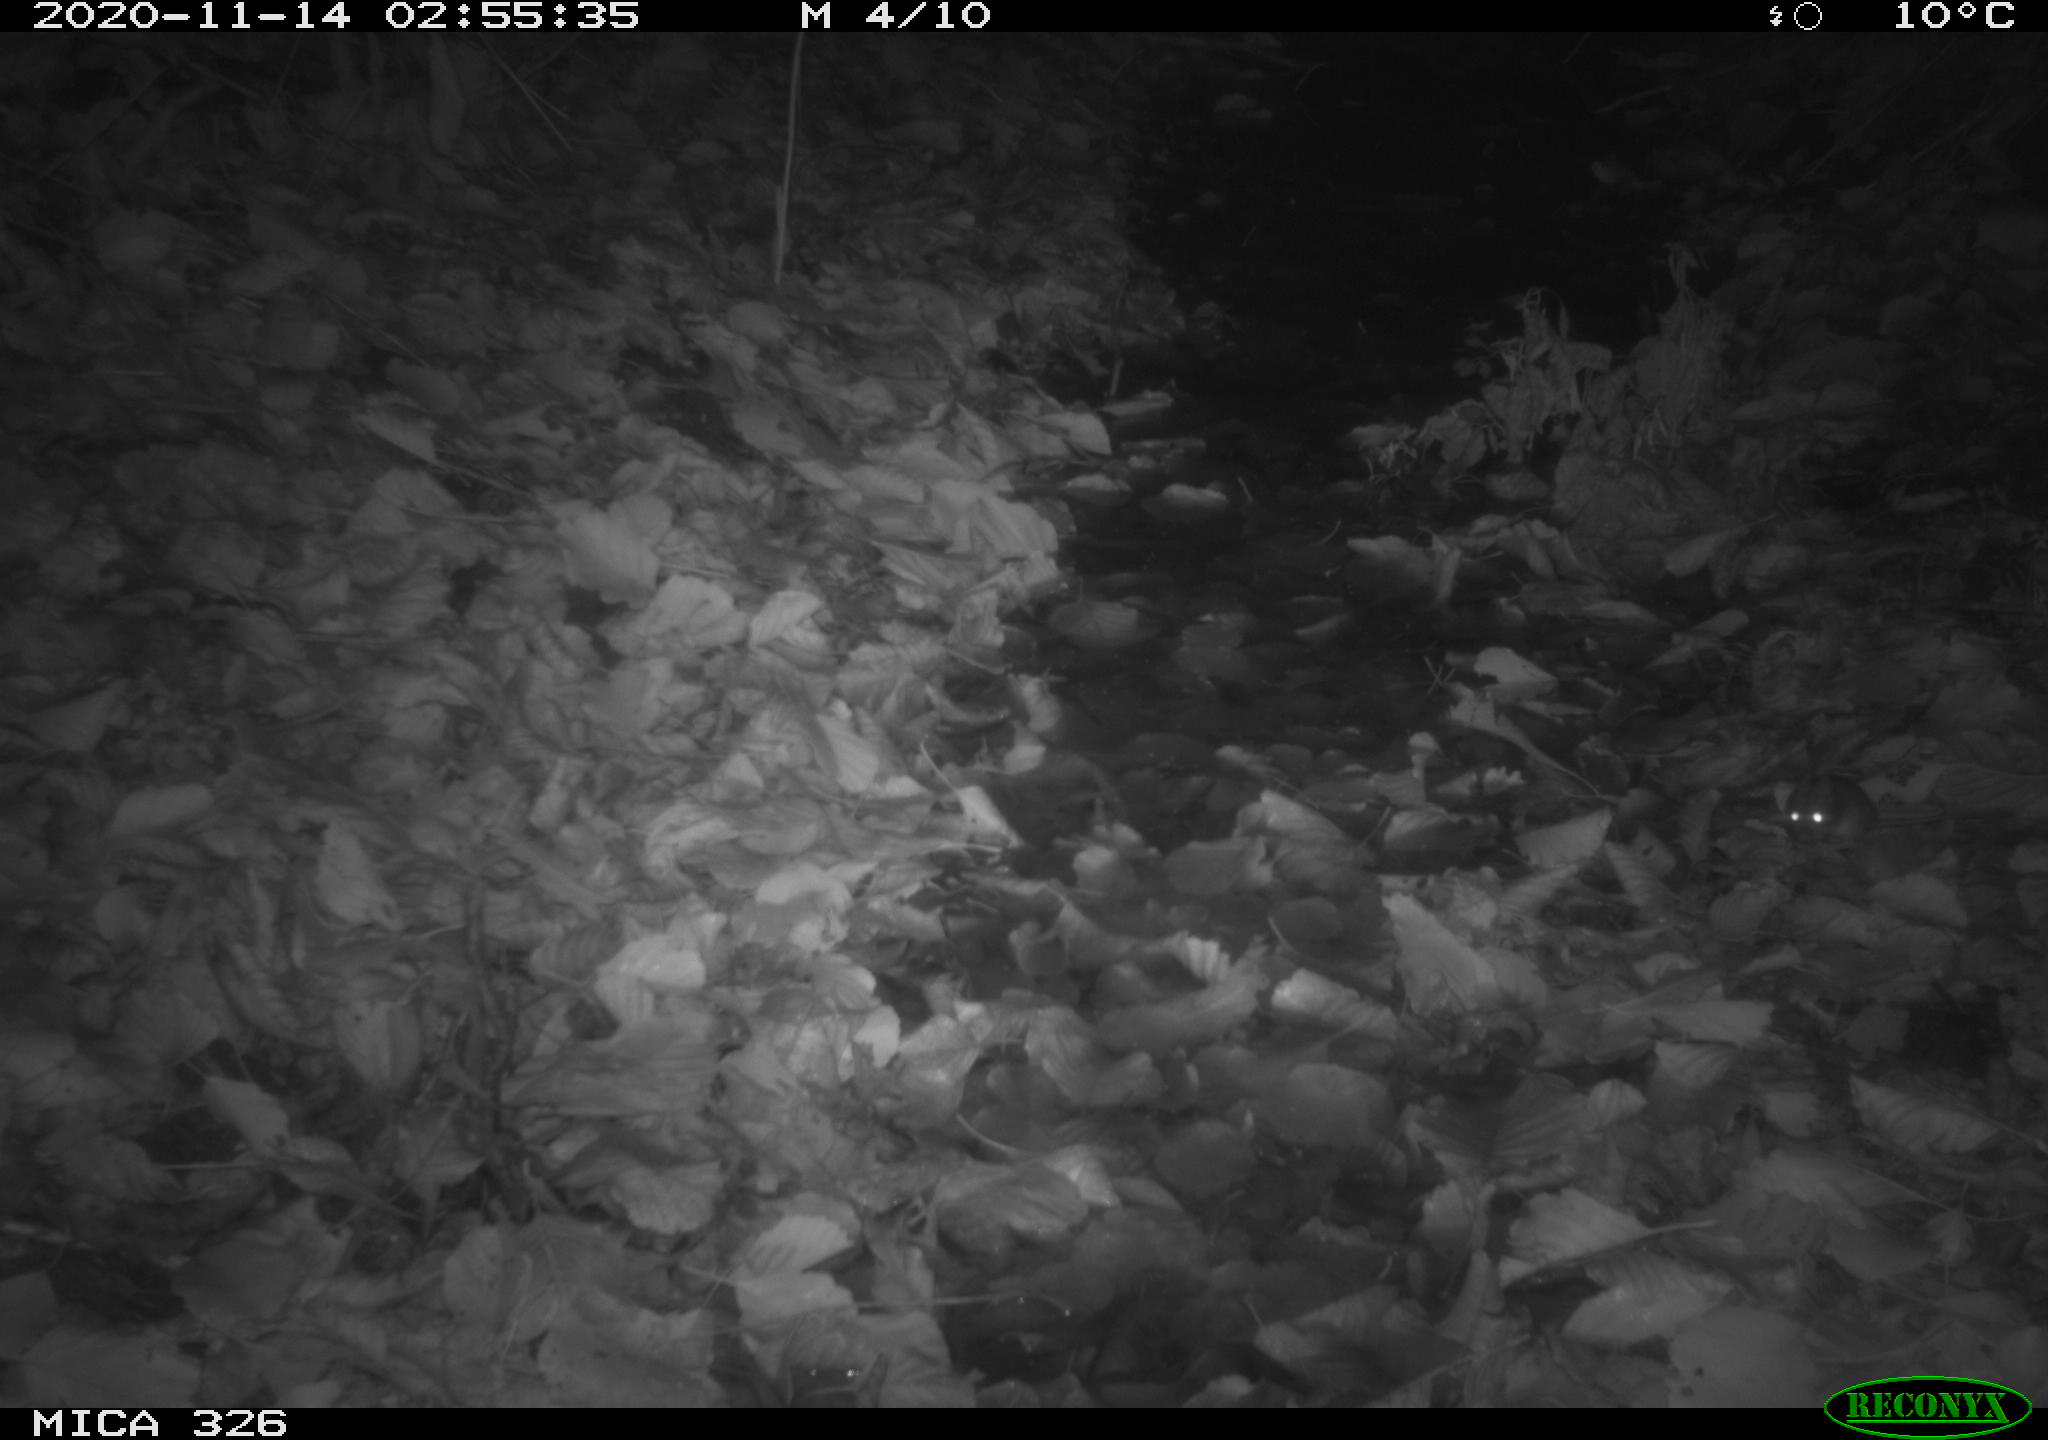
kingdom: Animalia
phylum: Chordata
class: Mammalia
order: Rodentia
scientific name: Rodentia
